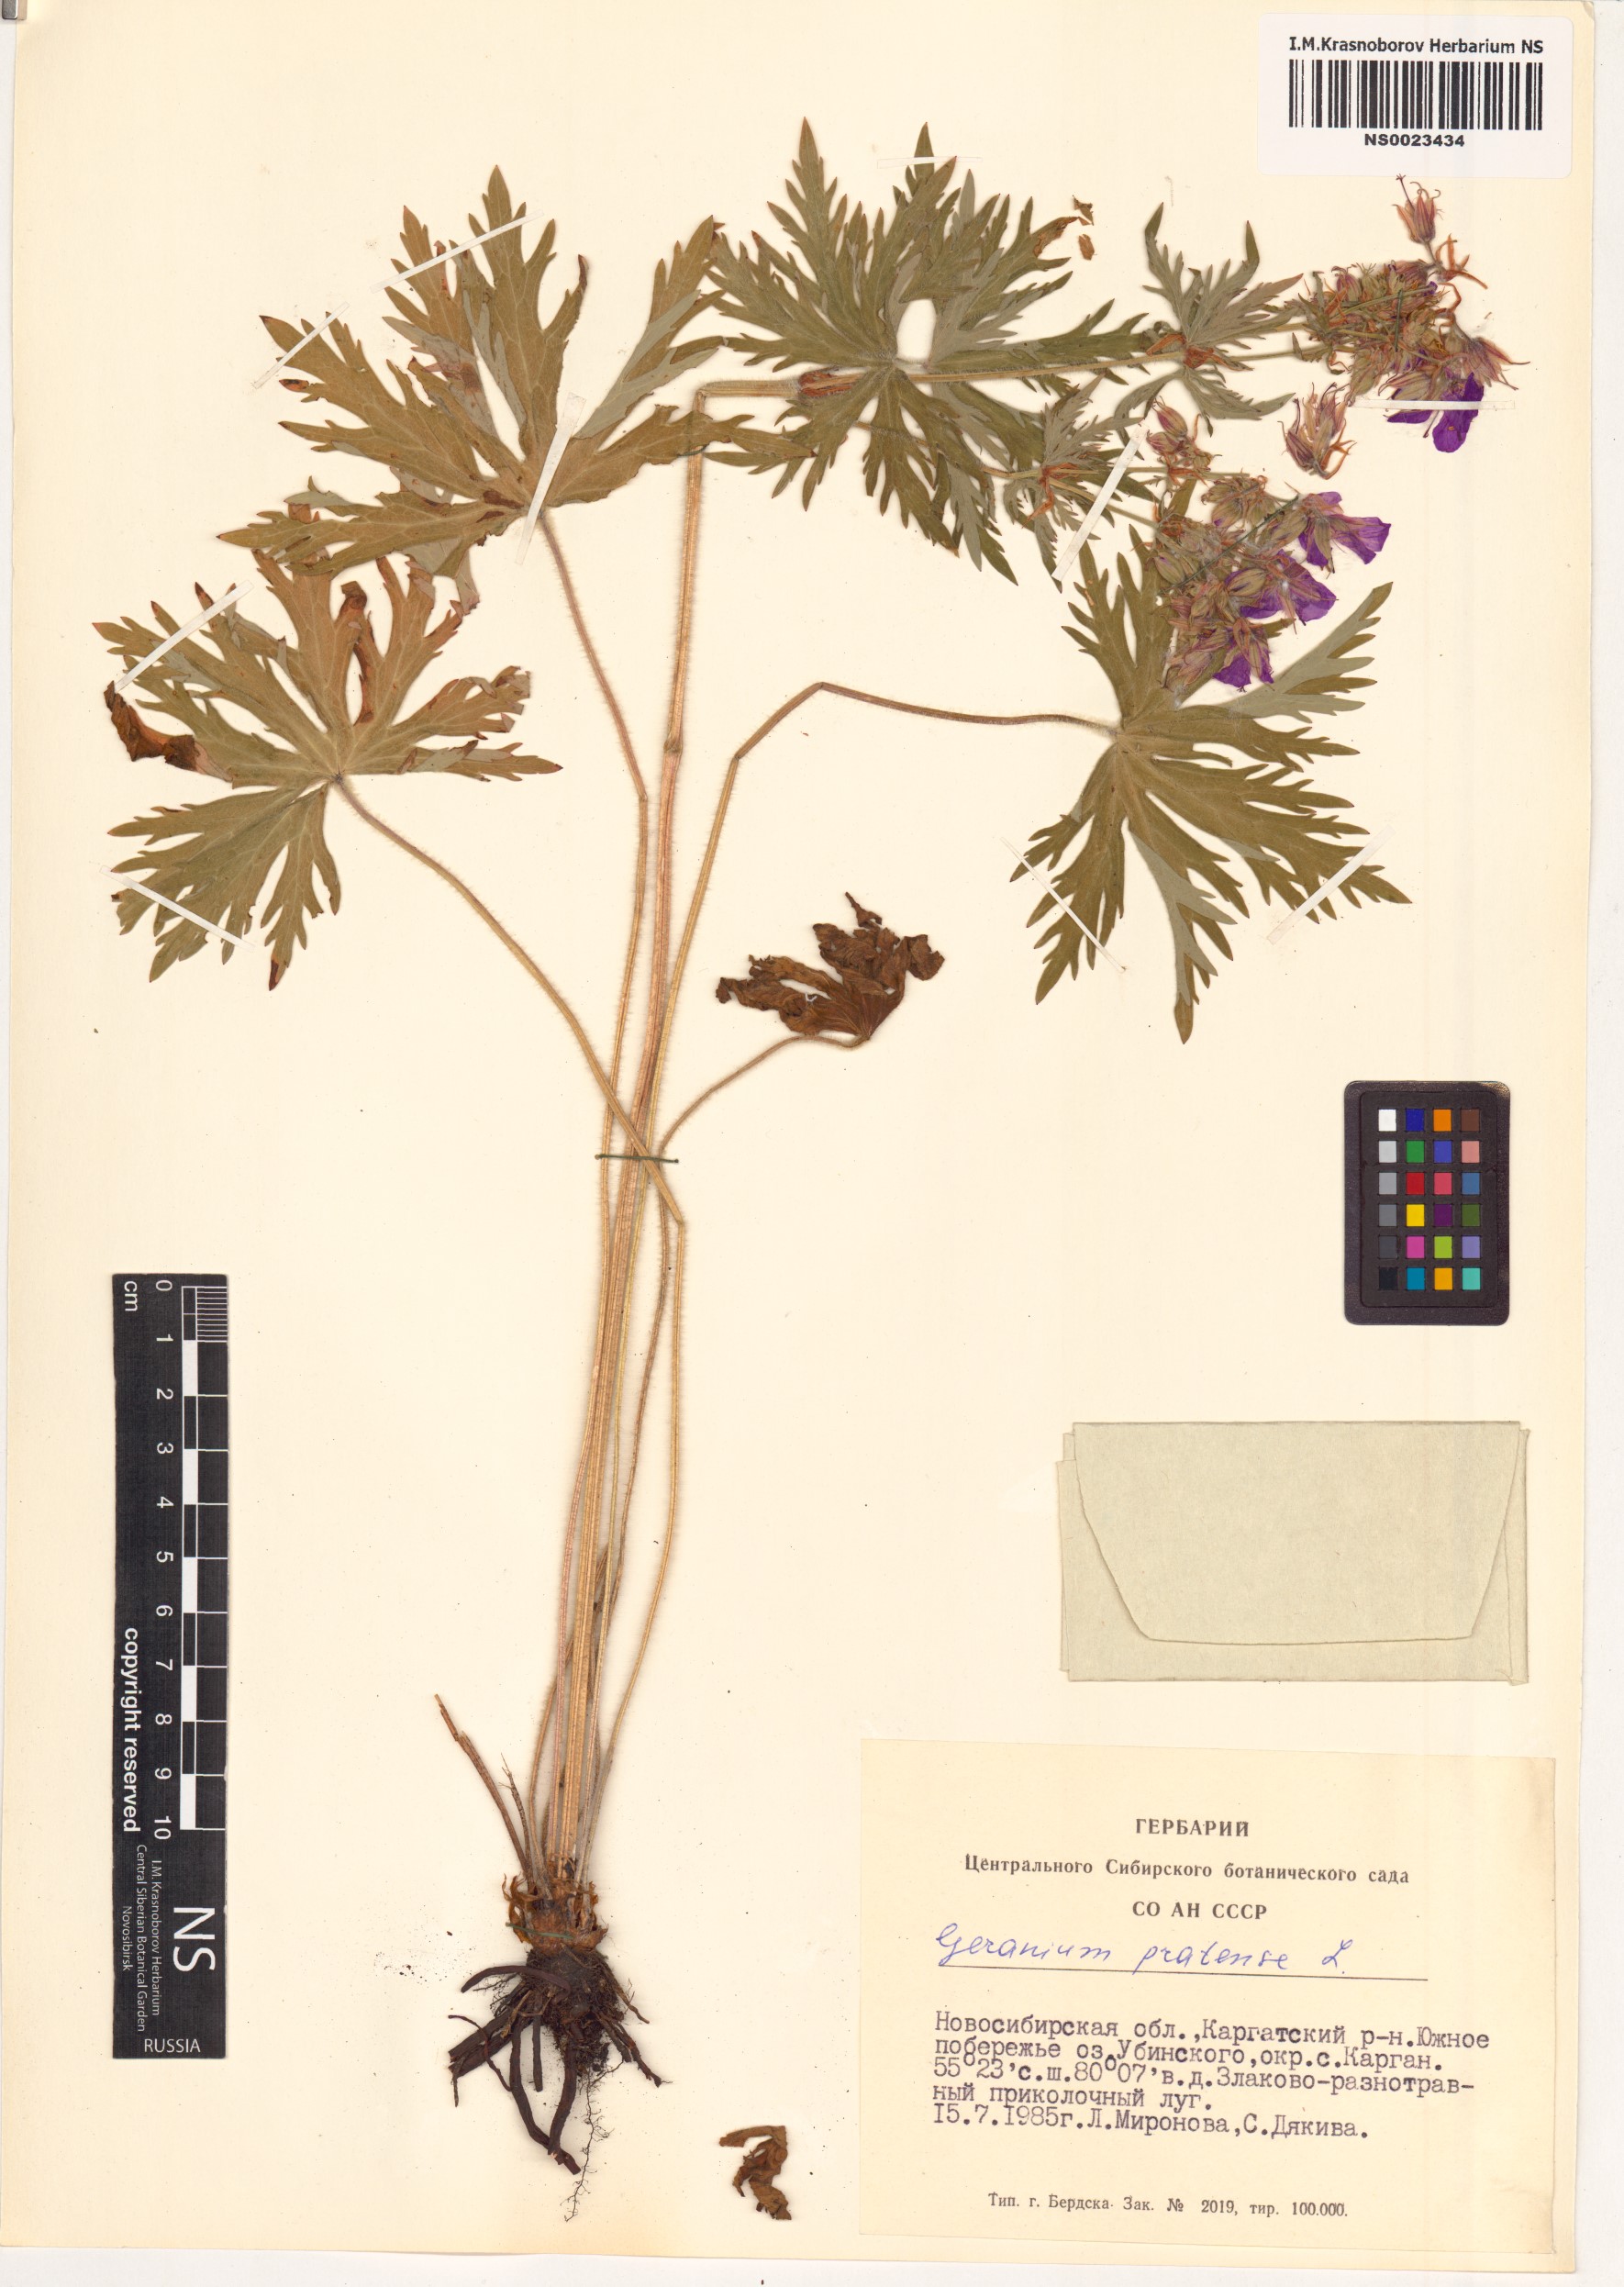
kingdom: Plantae
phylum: Tracheophyta
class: Magnoliopsida
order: Geraniales
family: Geraniaceae
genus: Geranium
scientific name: Geranium pratense
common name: Meadow crane's-bill
